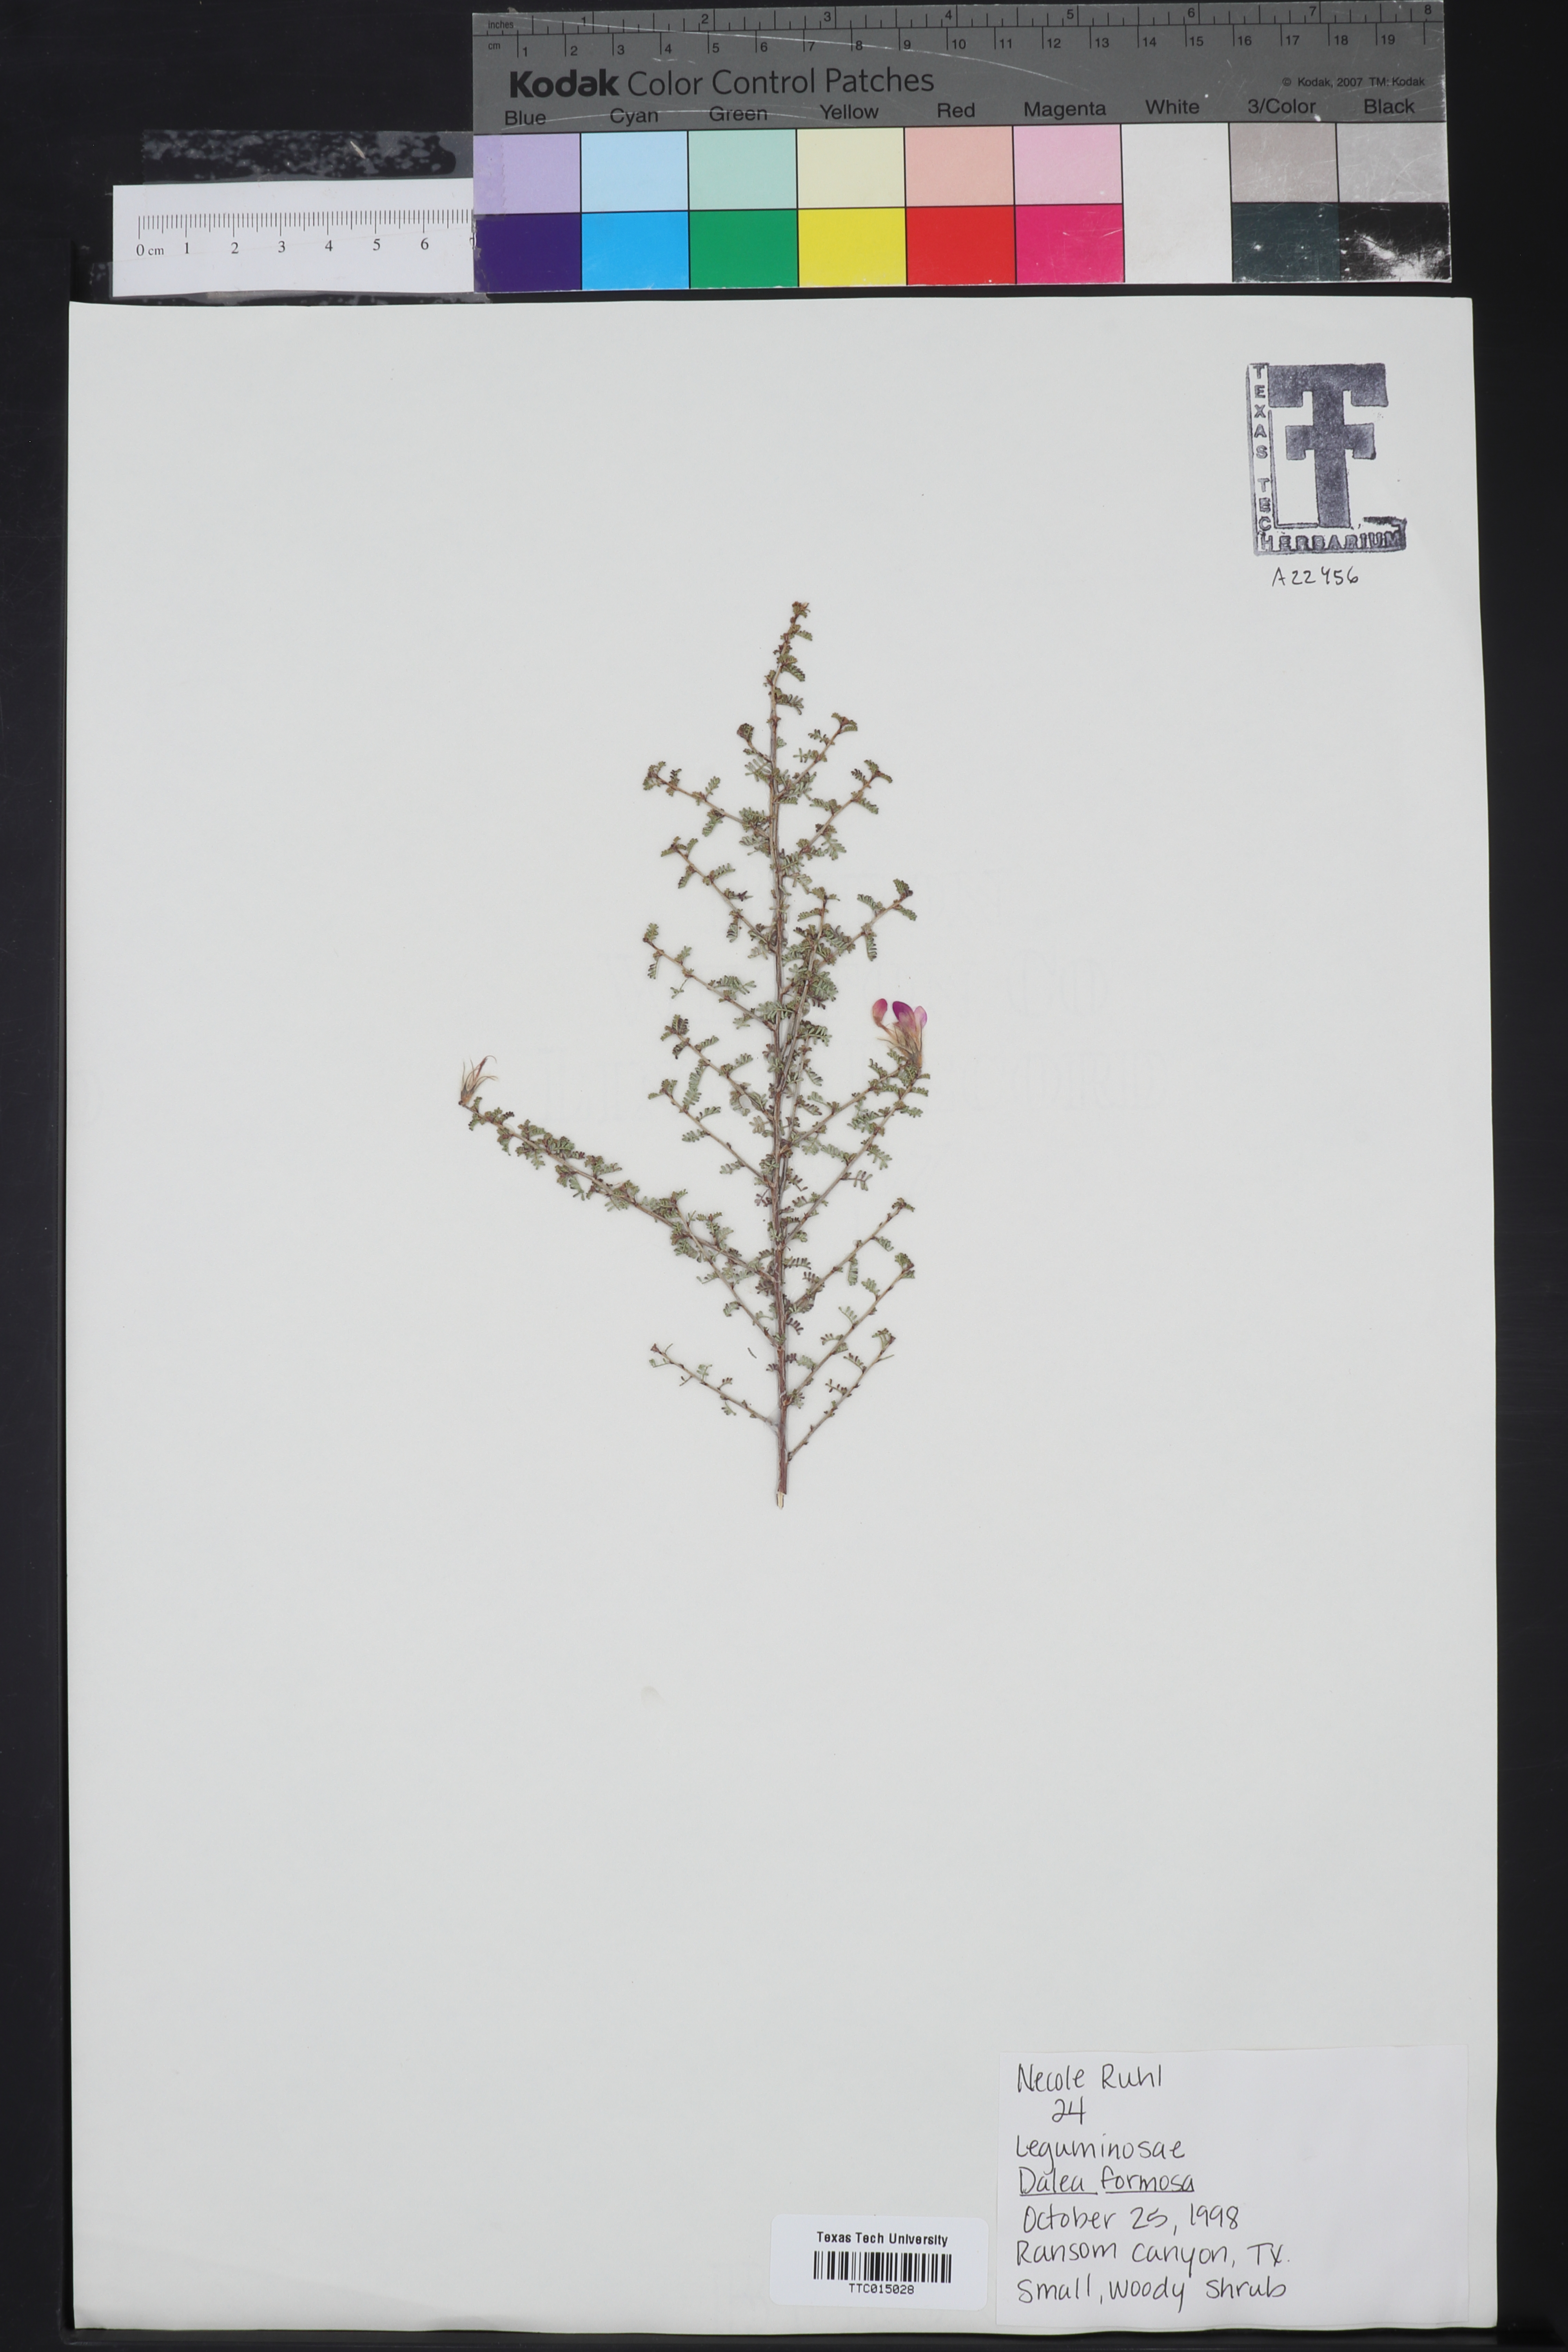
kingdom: Plantae
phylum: Tracheophyta
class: Magnoliopsida
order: Fabales
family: Fabaceae
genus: Dalea
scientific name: Dalea formosa
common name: Feather-plume dalea
